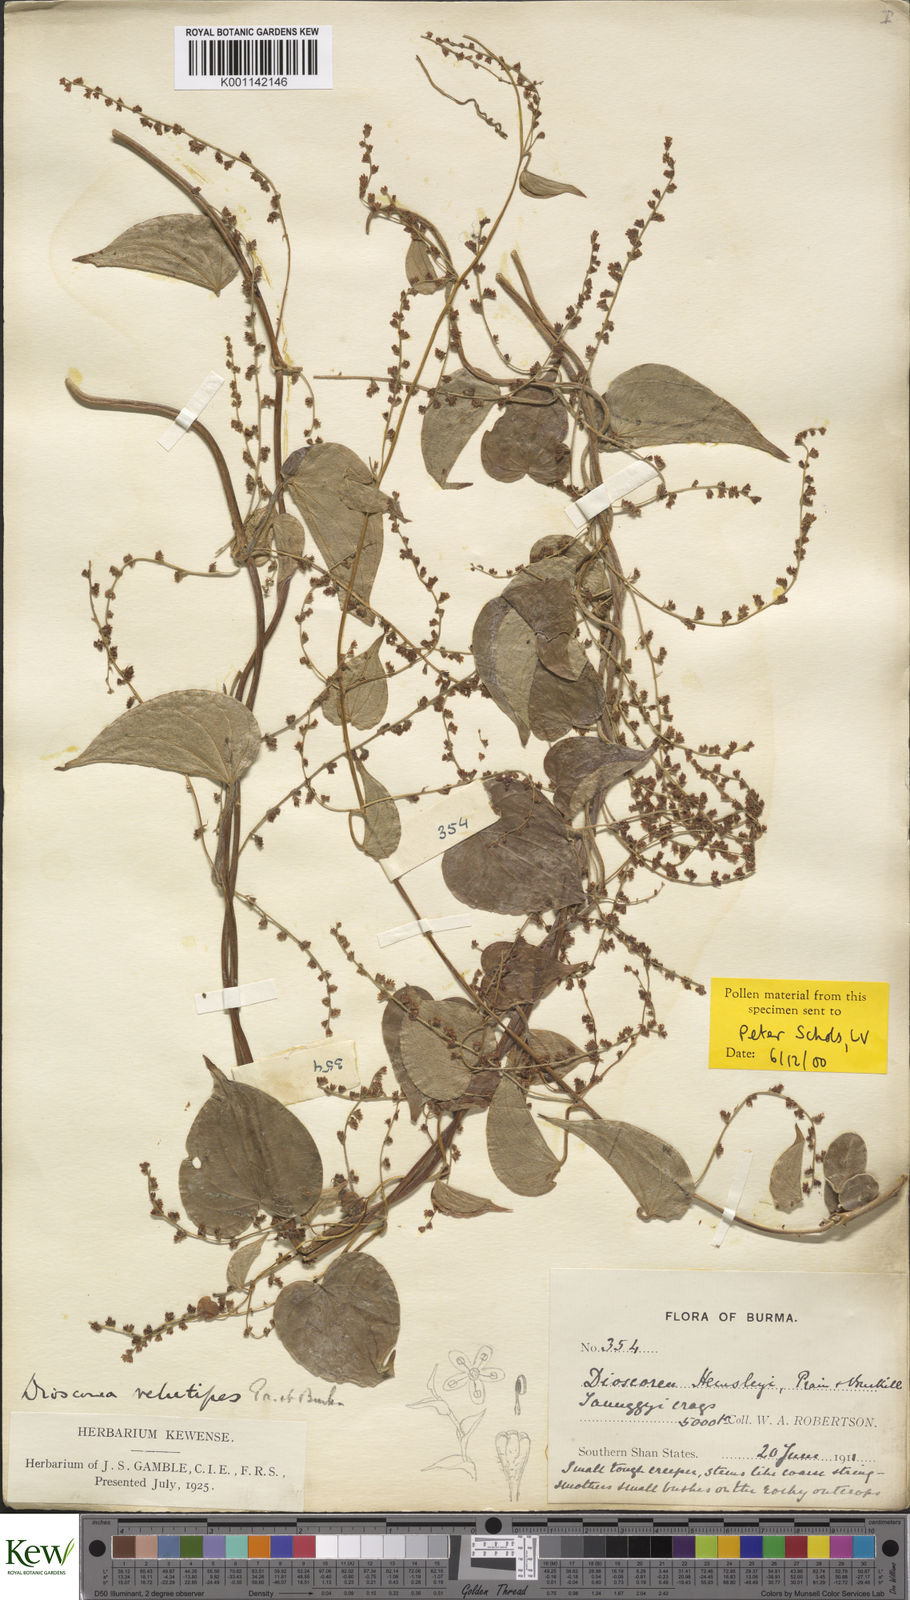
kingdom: Plantae
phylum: Tracheophyta
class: Liliopsida
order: Dioscoreales
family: Dioscoreaceae
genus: Dioscorea
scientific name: Dioscorea hemsleyi
